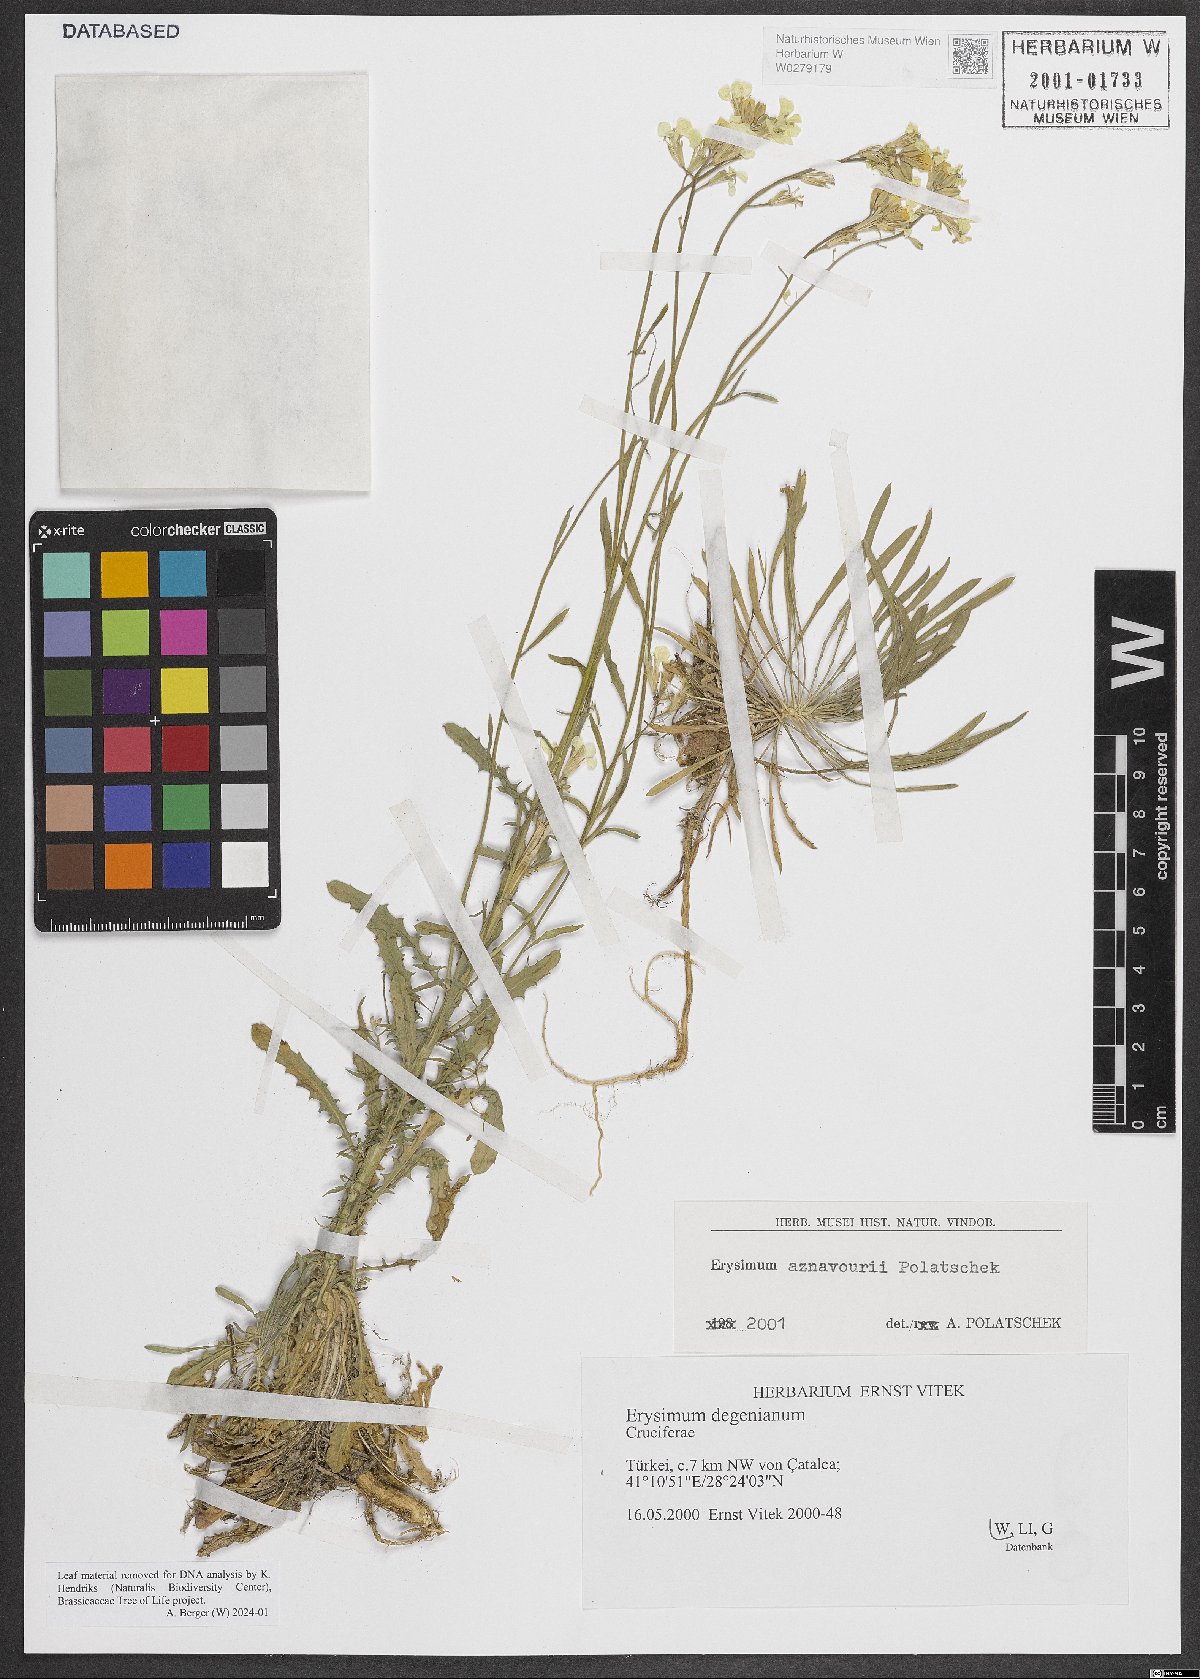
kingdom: Plantae
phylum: Tracheophyta
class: Magnoliopsida
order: Brassicales
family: Brassicaceae
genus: Erysimum
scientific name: Erysimum aznavourii
